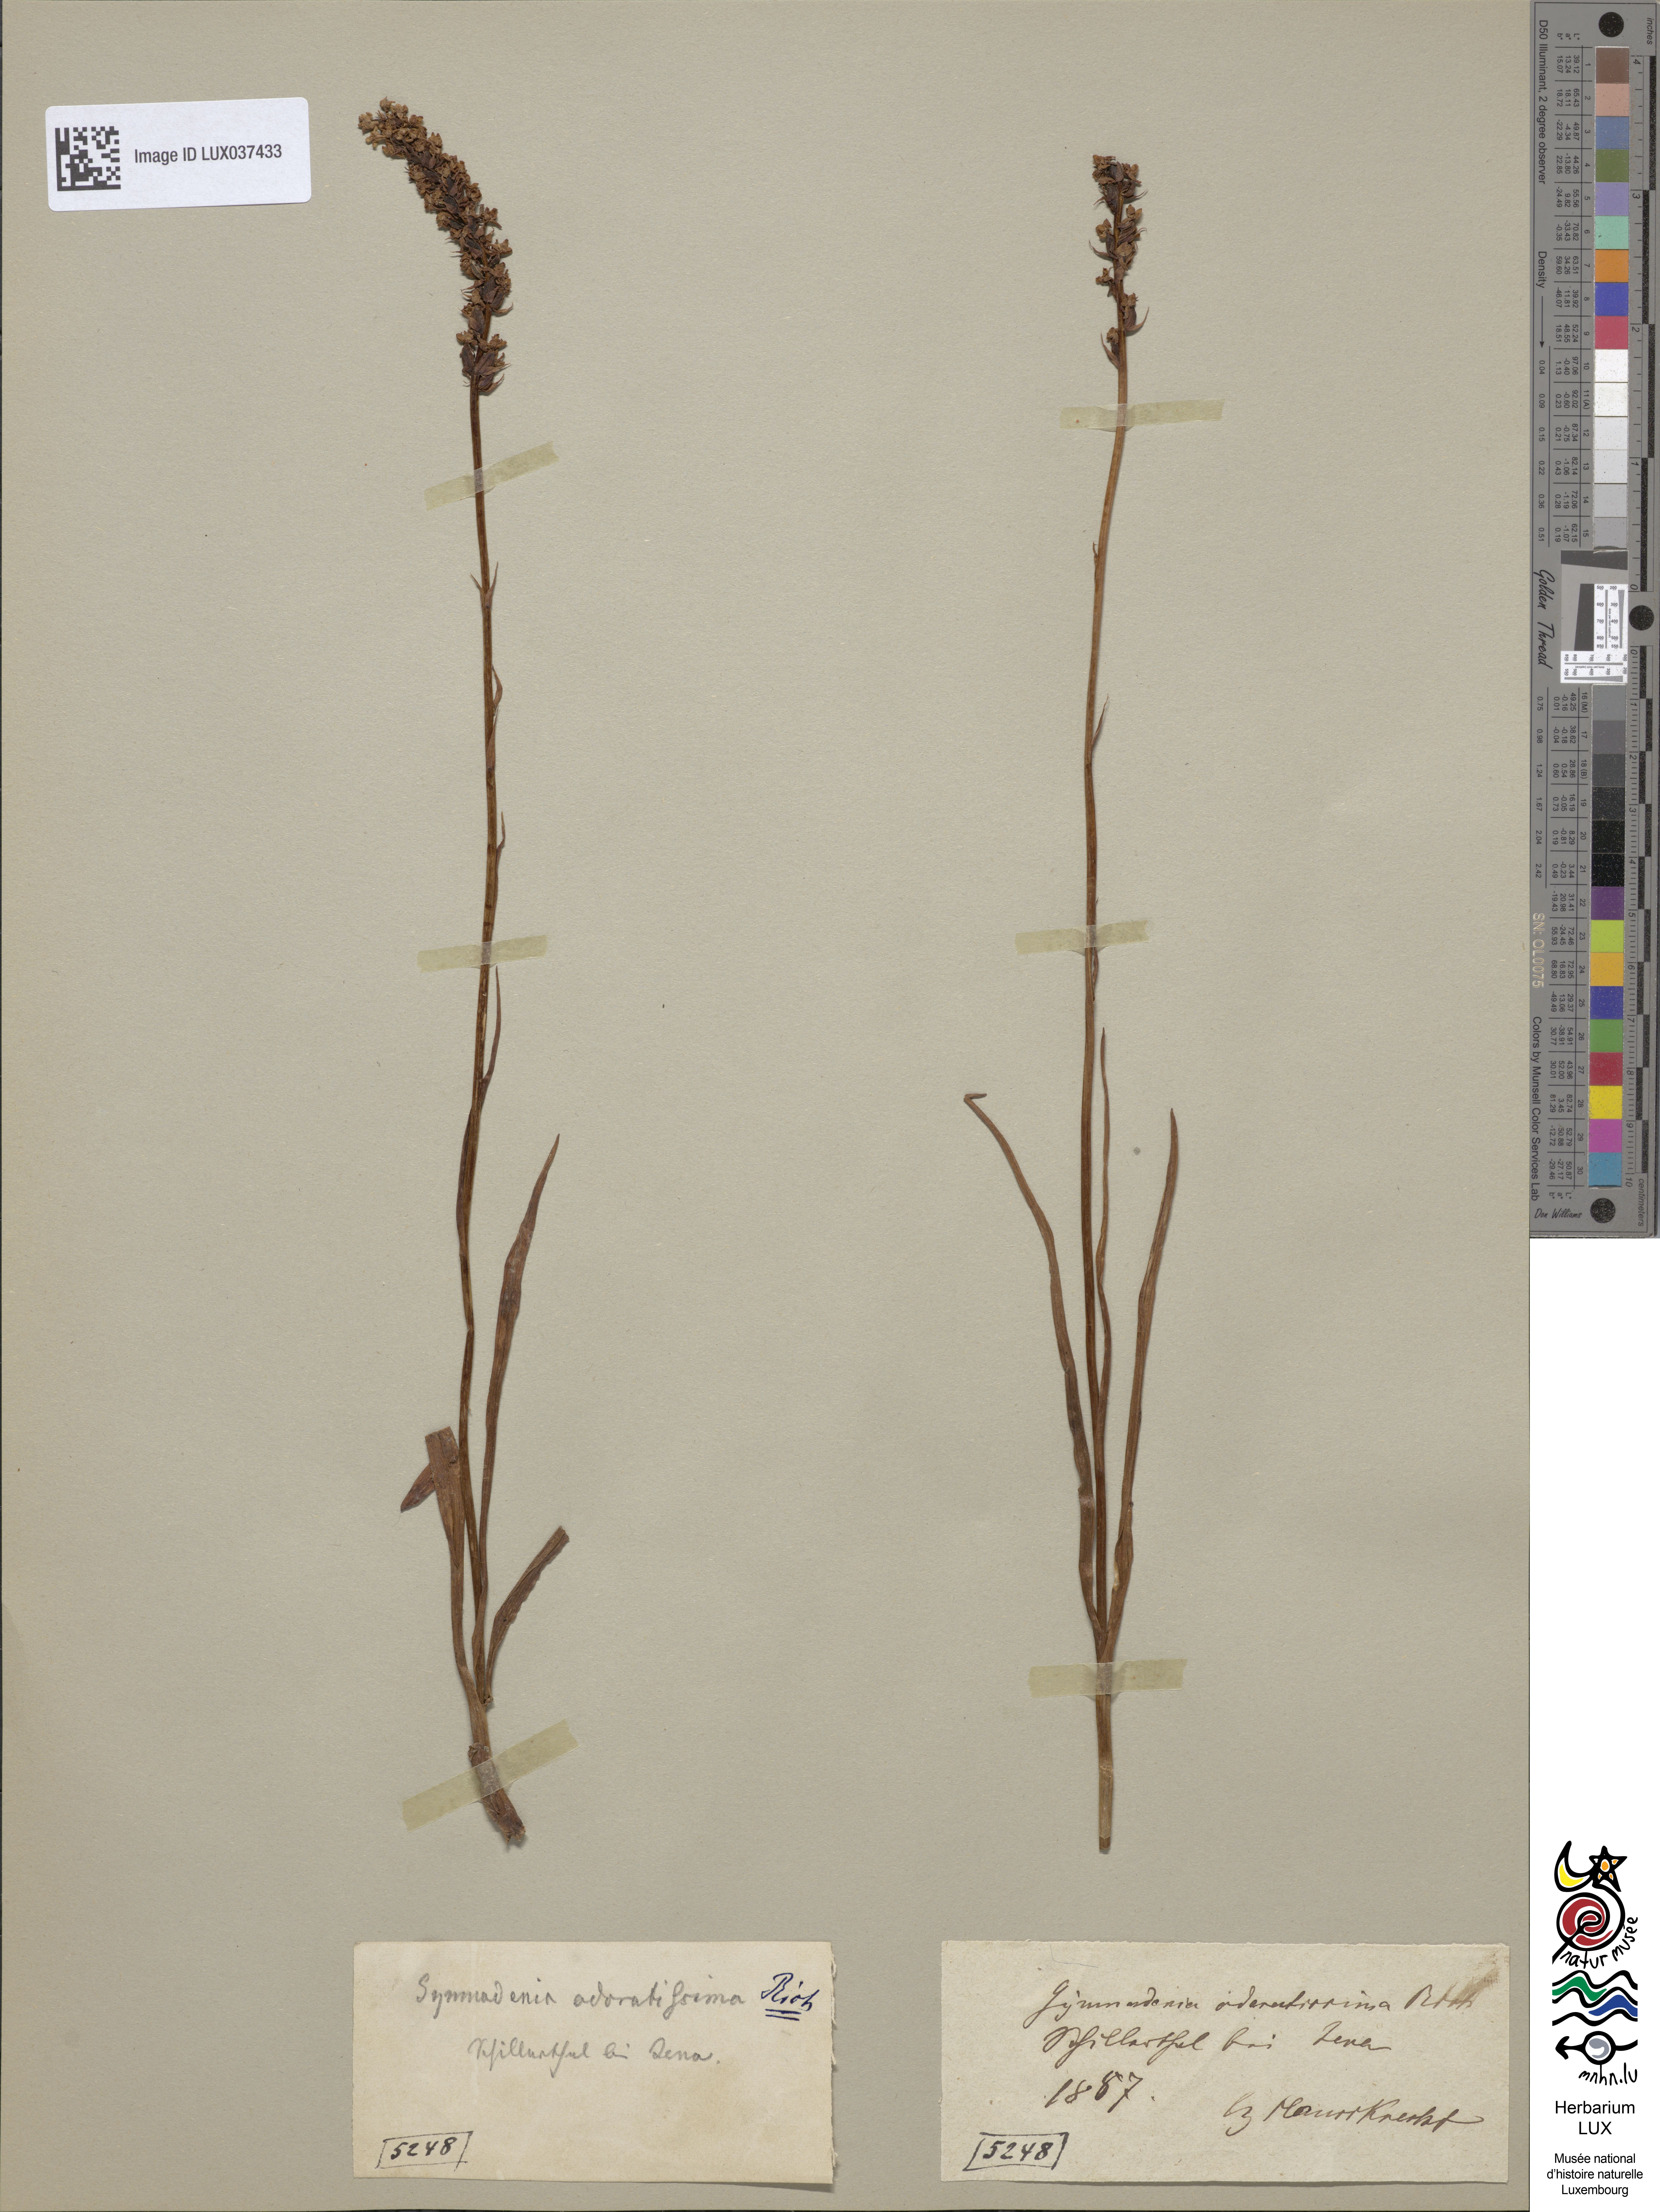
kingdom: Plantae
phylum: Tracheophyta
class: Liliopsida
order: Asparagales
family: Orchidaceae
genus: Gymnadenia
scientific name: Gymnadenia odoratissima
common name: Scented gymnadenia
